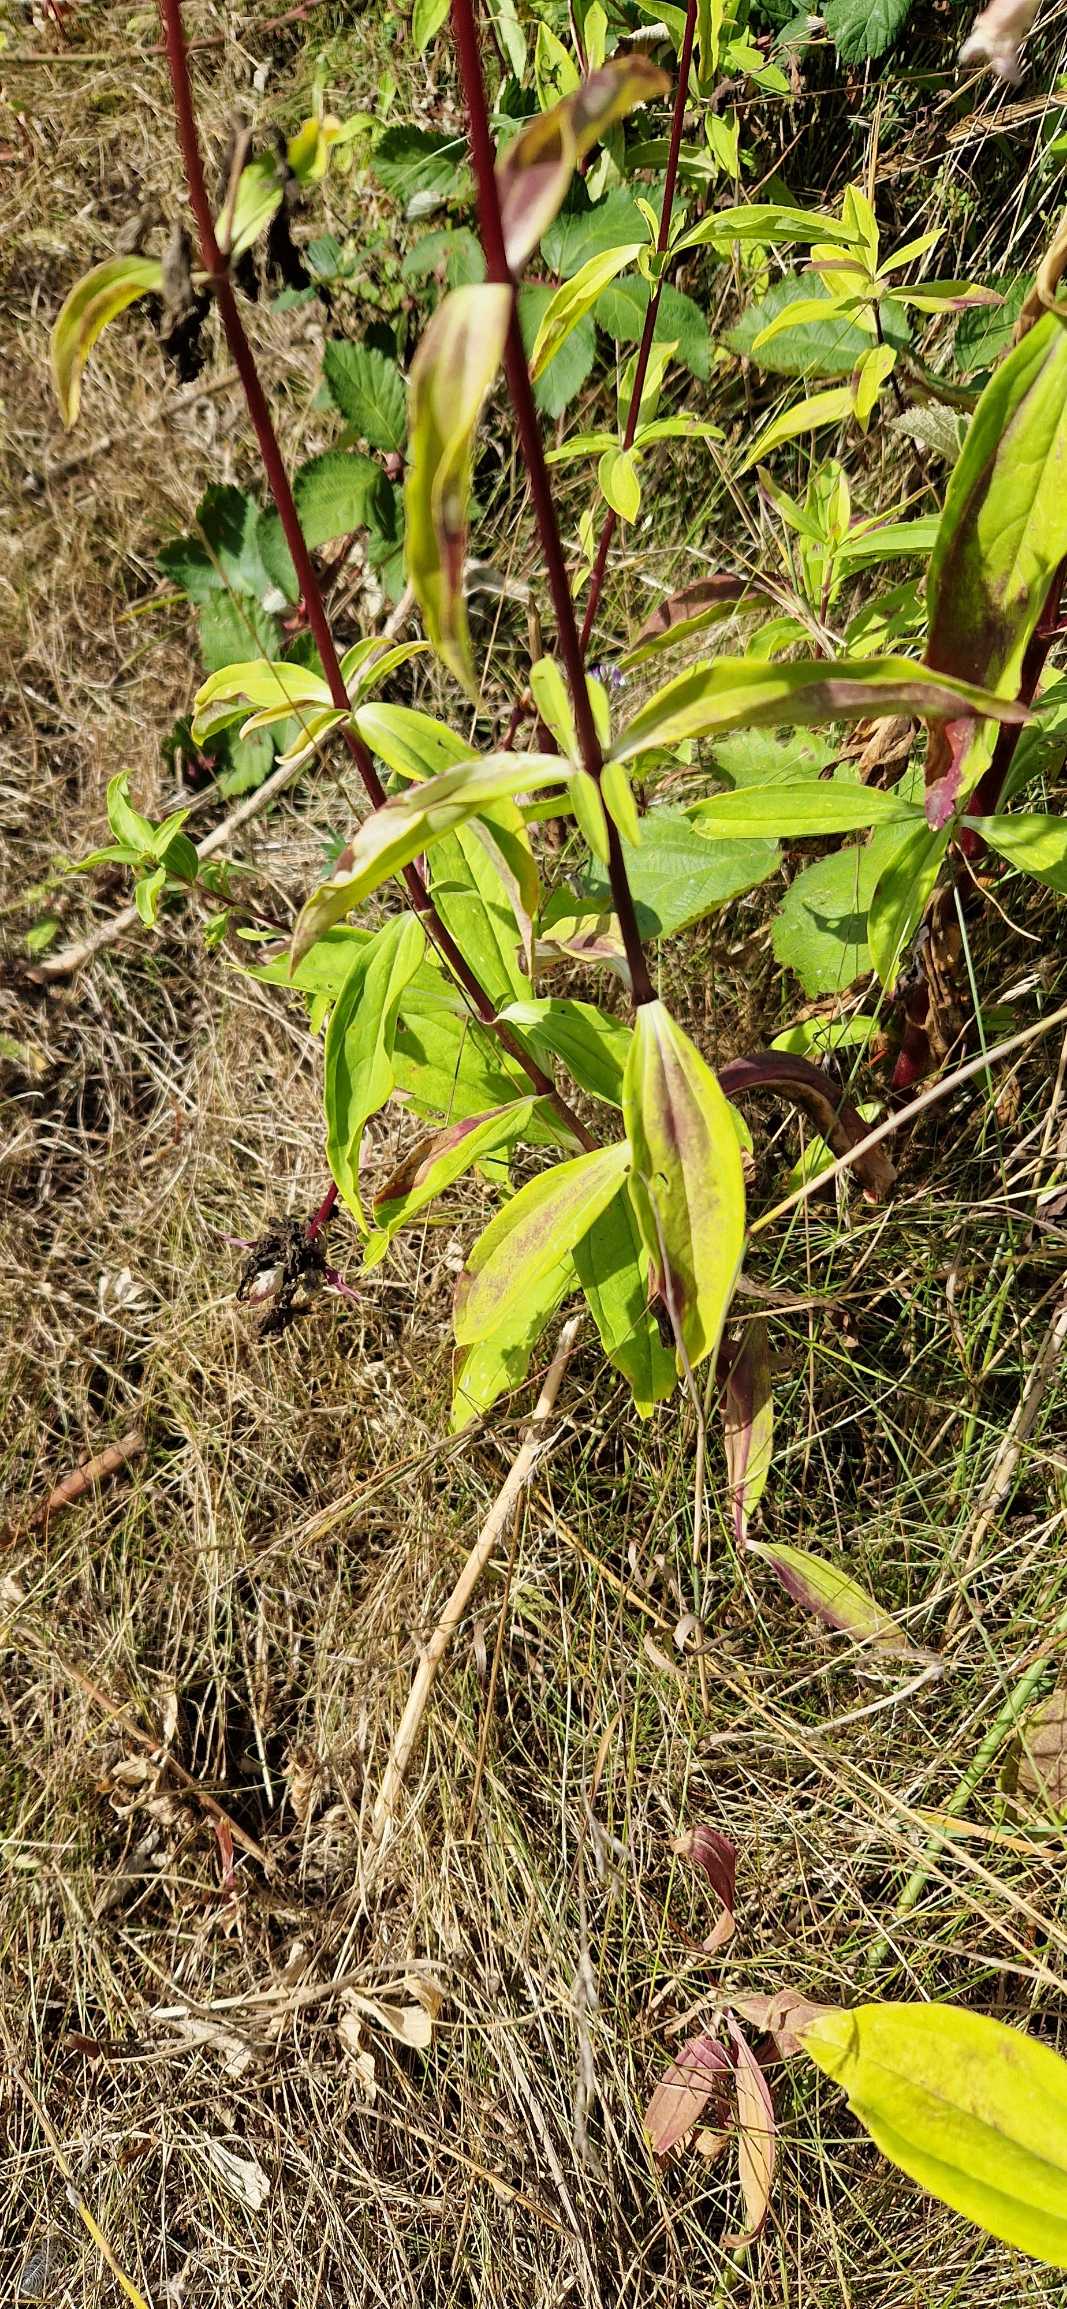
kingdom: Plantae
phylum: Tracheophyta
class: Magnoliopsida
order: Caryophyllales
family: Caryophyllaceae
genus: Saponaria
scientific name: Saponaria officinalis
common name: Sæbeurt
